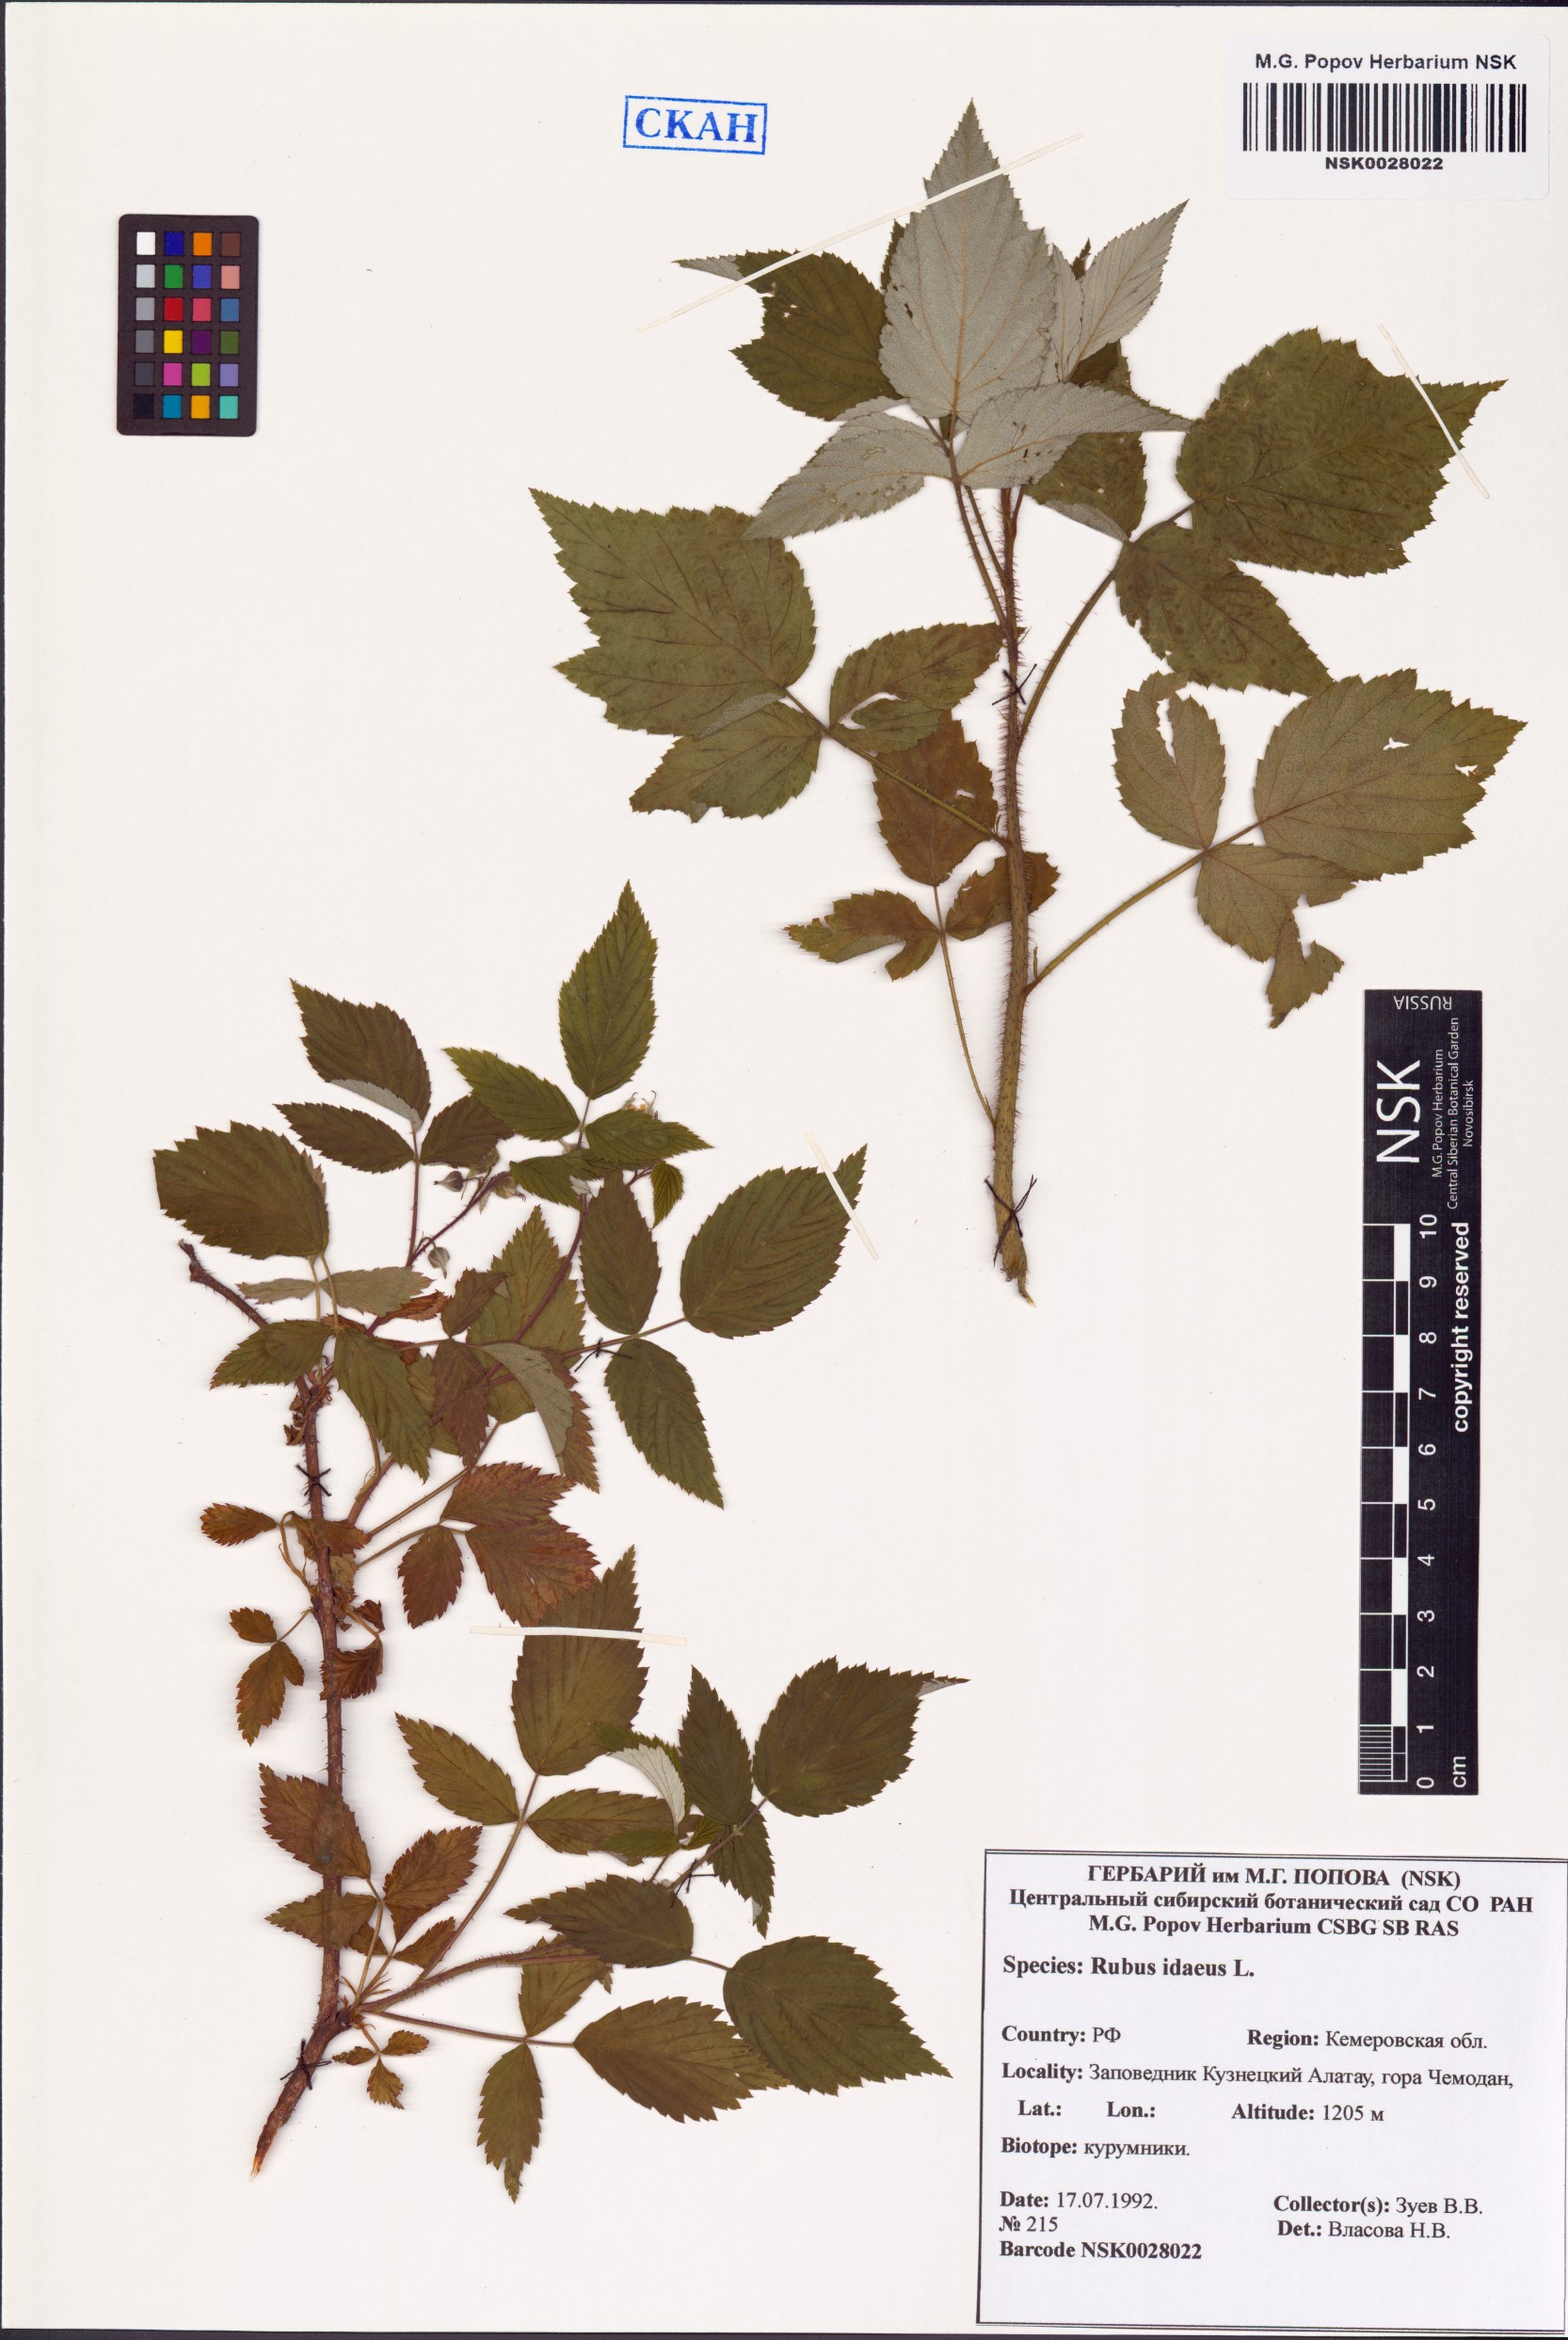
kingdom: Plantae
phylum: Tracheophyta
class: Magnoliopsida
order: Rosales
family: Rosaceae
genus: Rubus
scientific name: Rubus idaeus
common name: Raspberry
